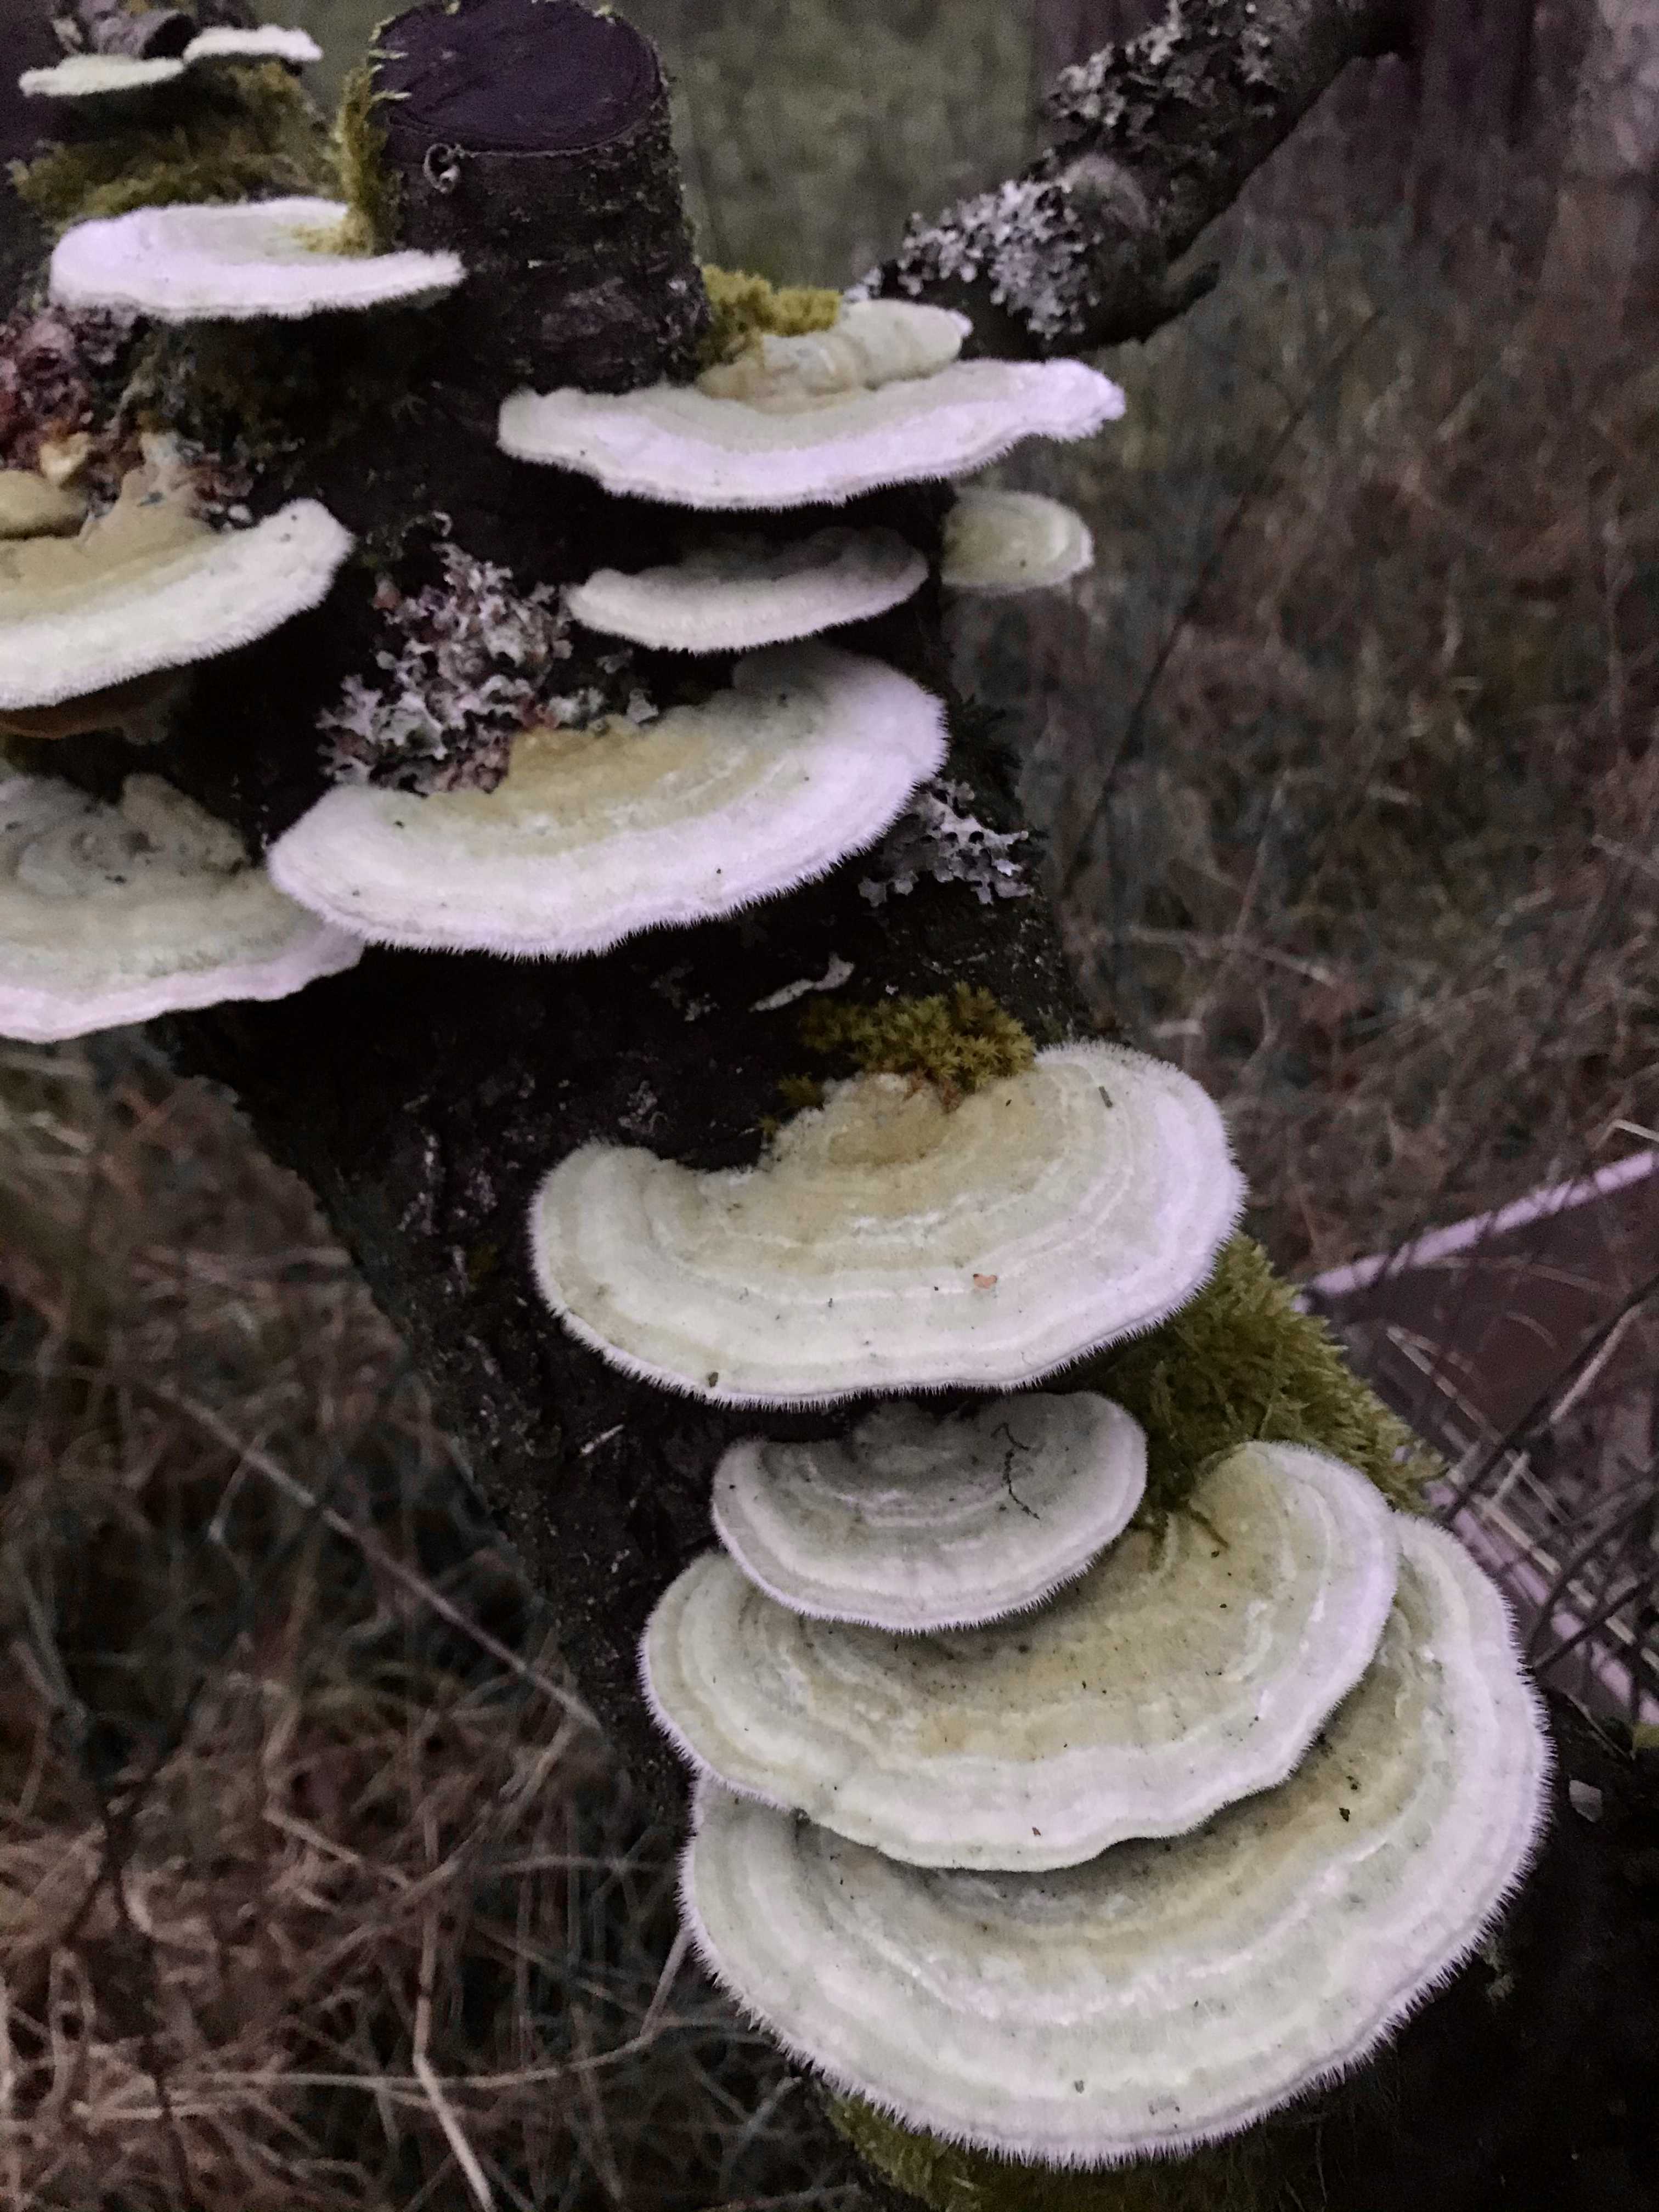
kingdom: Fungi
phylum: Basidiomycota
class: Agaricomycetes
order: Polyporales
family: Polyporaceae
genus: Trametes
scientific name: Trametes hirsuta
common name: håret læderporesvamp
